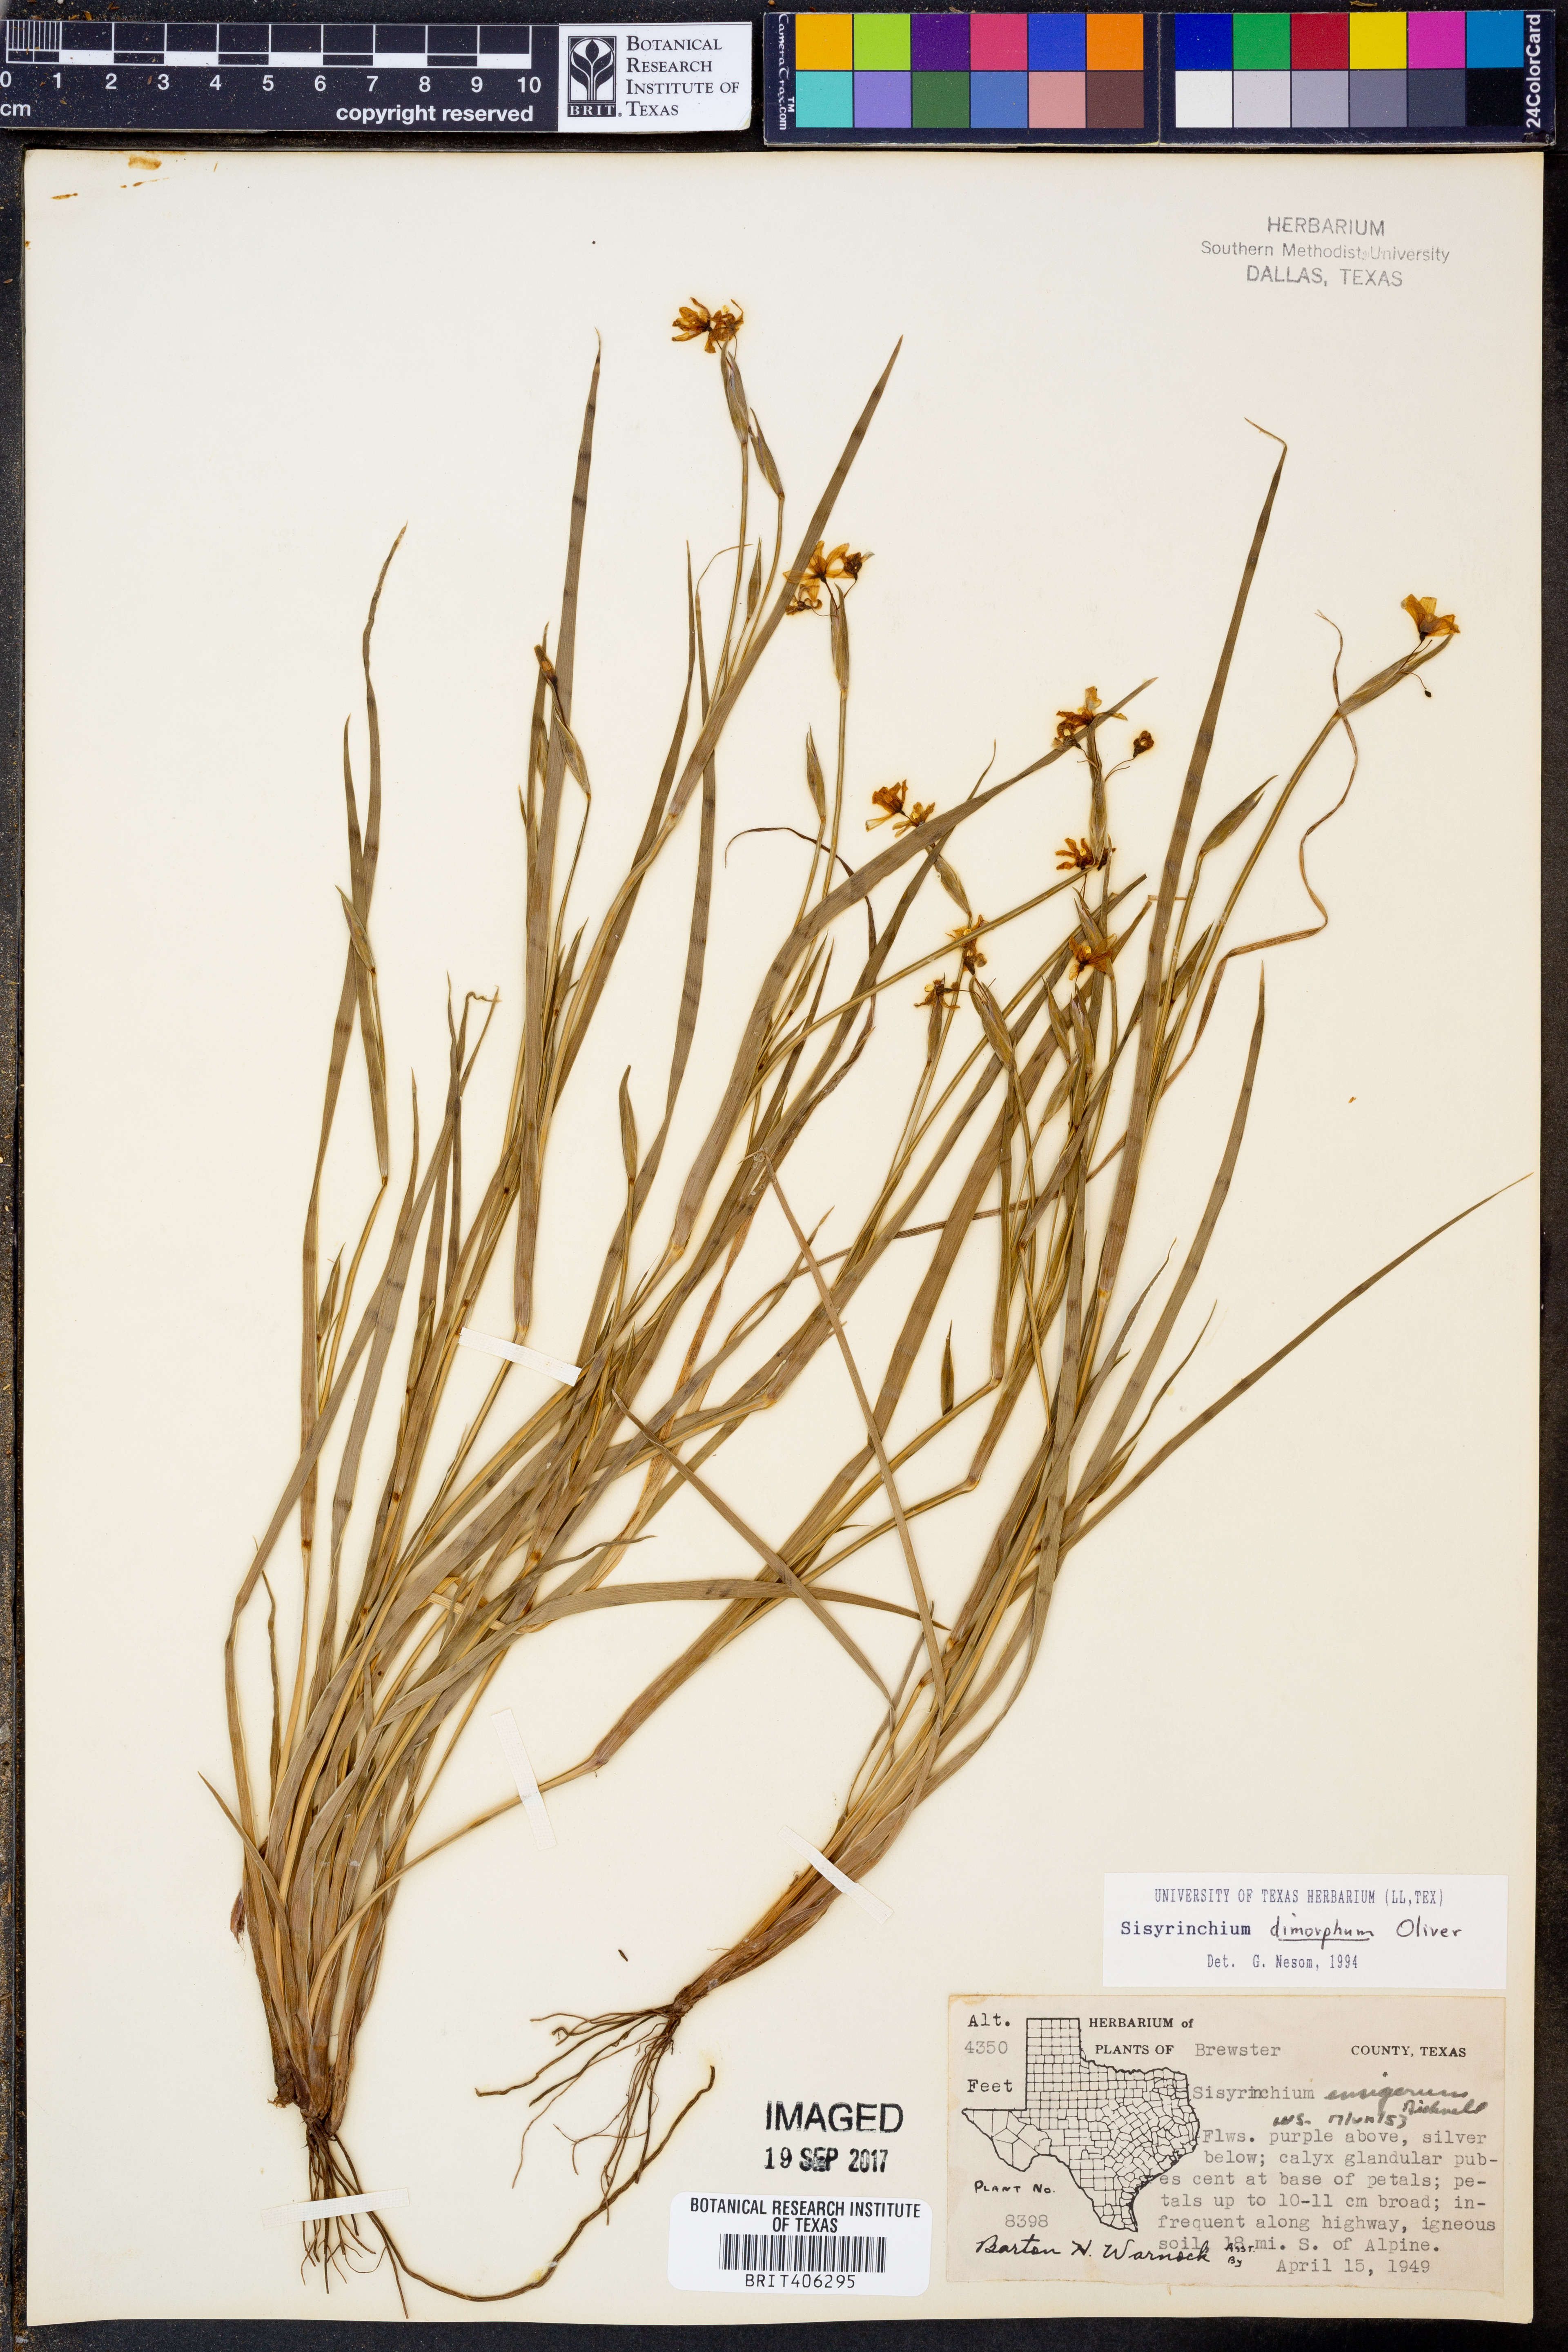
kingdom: Plantae
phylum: Tracheophyta
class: Liliopsida
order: Asparagales
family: Iridaceae
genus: Sisyrinchium
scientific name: Sisyrinchium dimorphum
